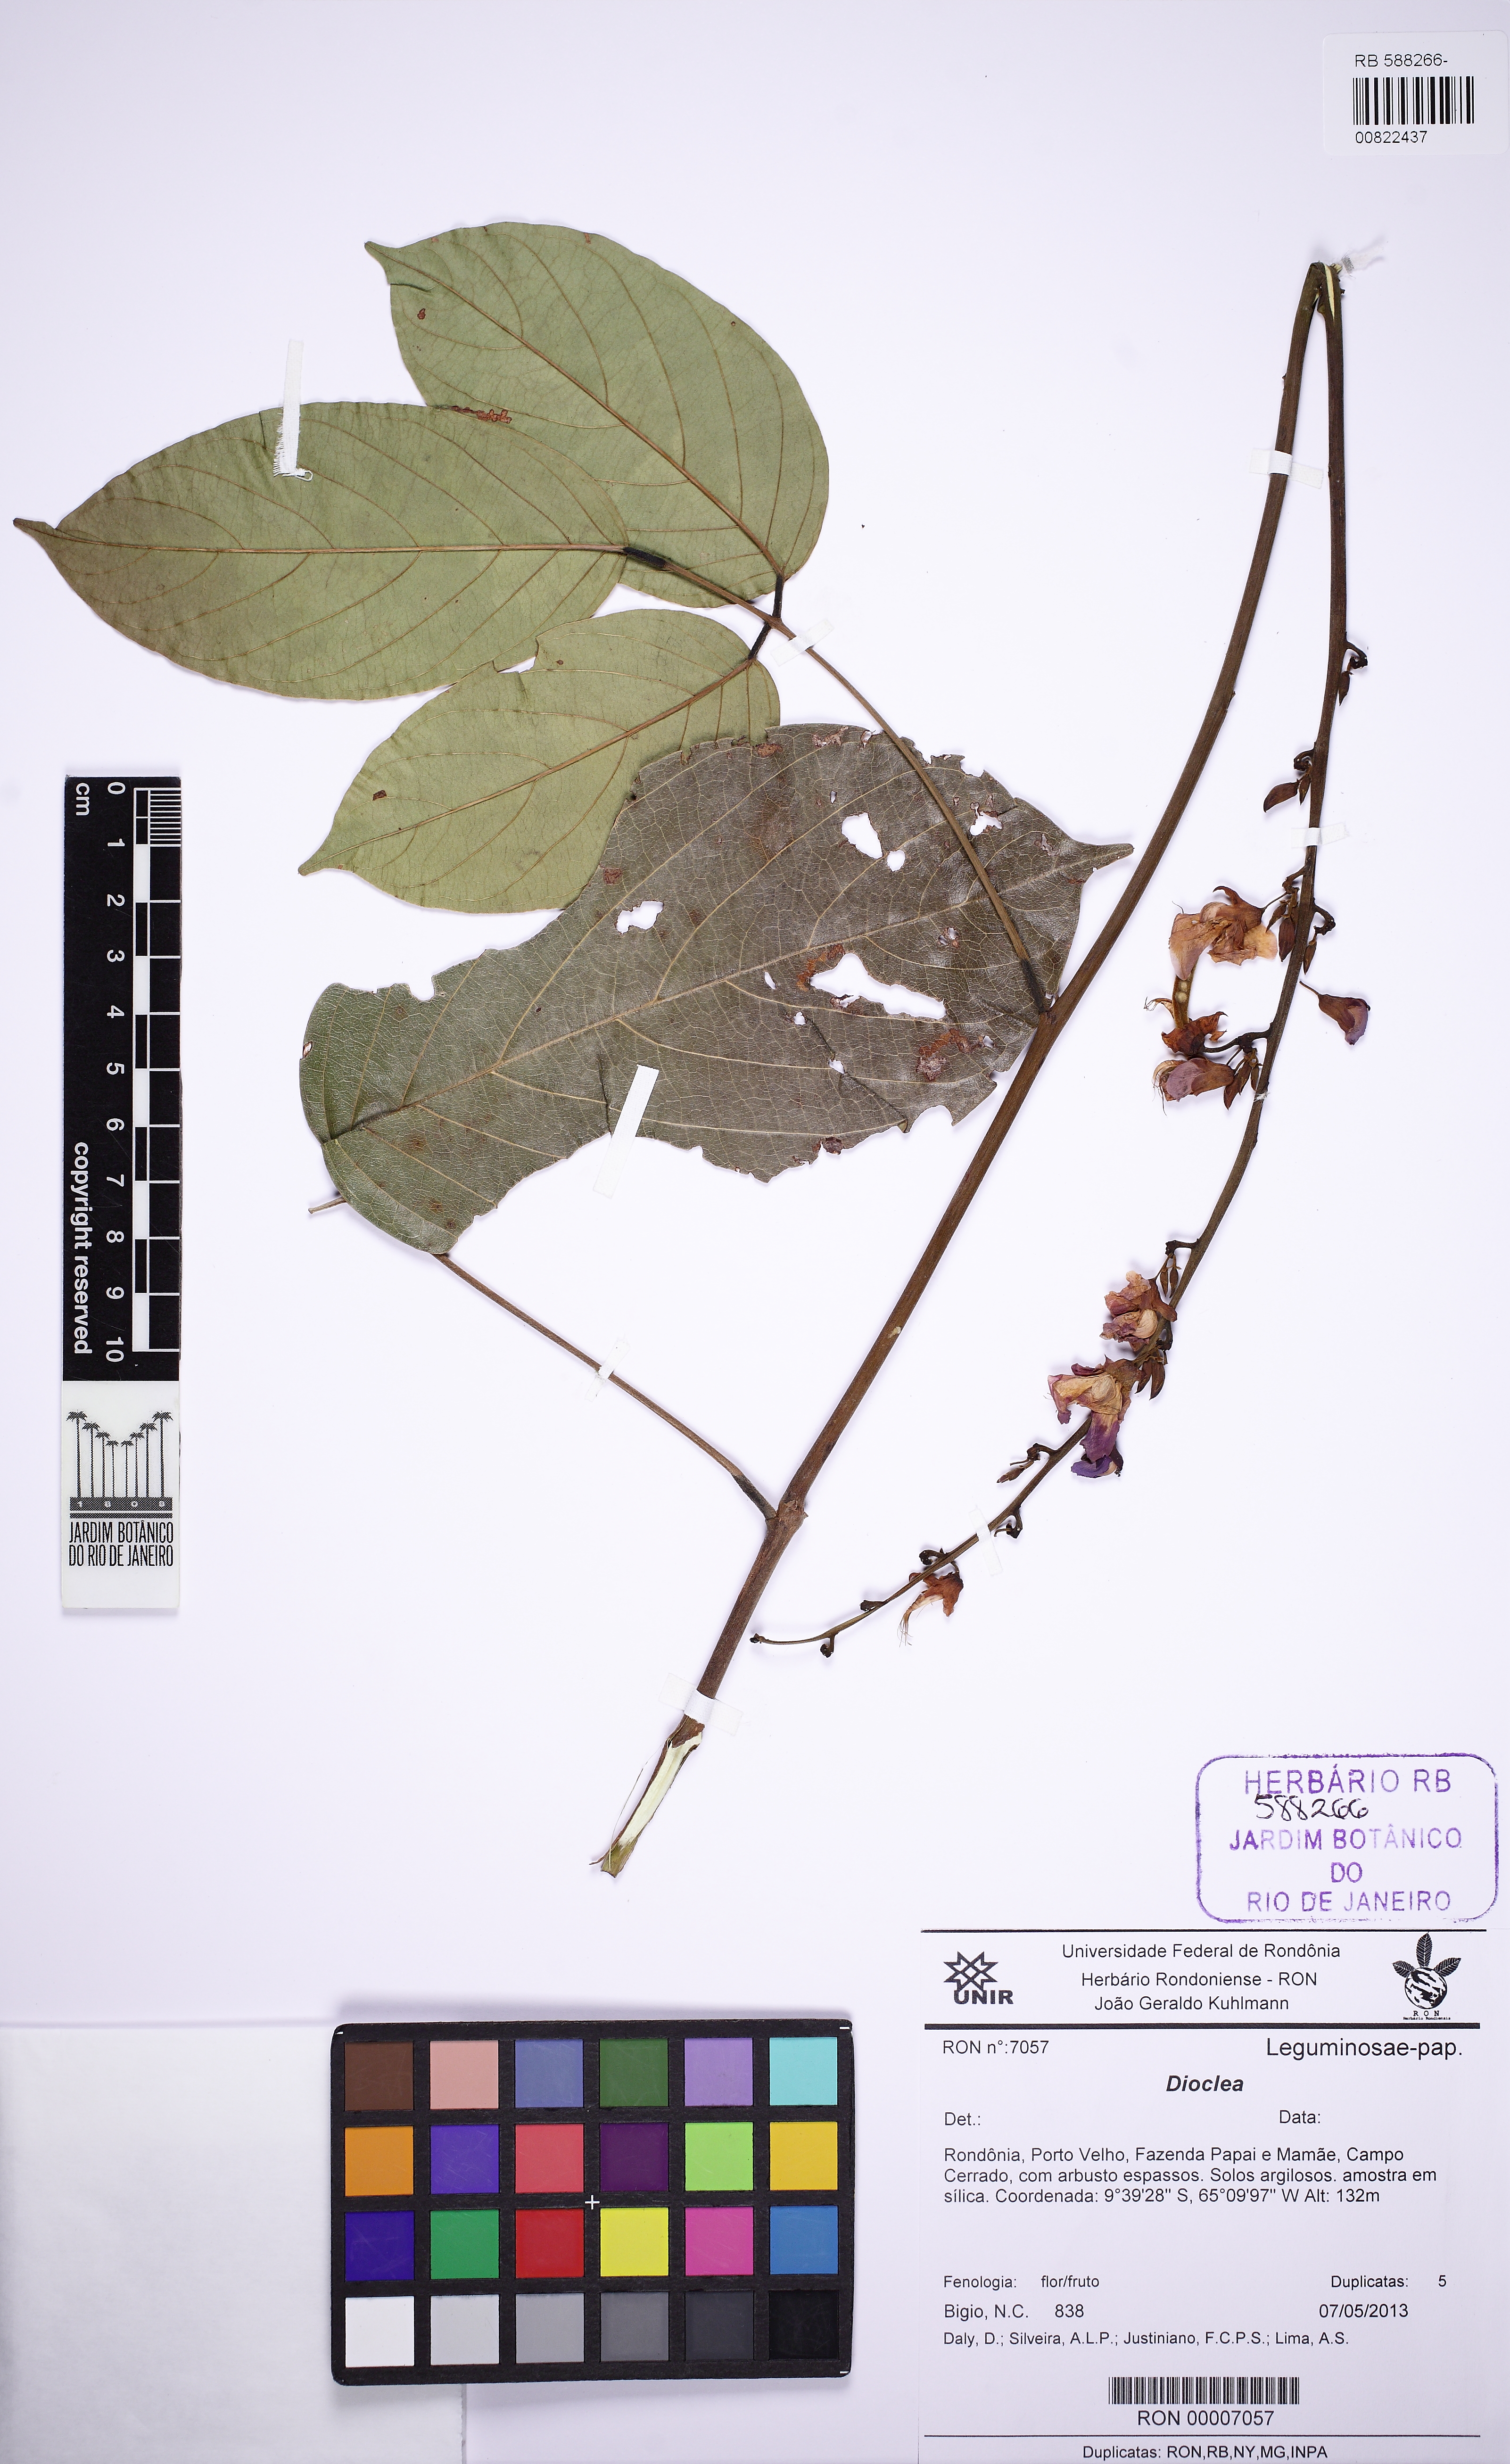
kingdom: Plantae
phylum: Tracheophyta
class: Magnoliopsida
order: Fabales
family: Fabaceae
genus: Macropsychanthus
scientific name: Macropsychanthus bicolor
